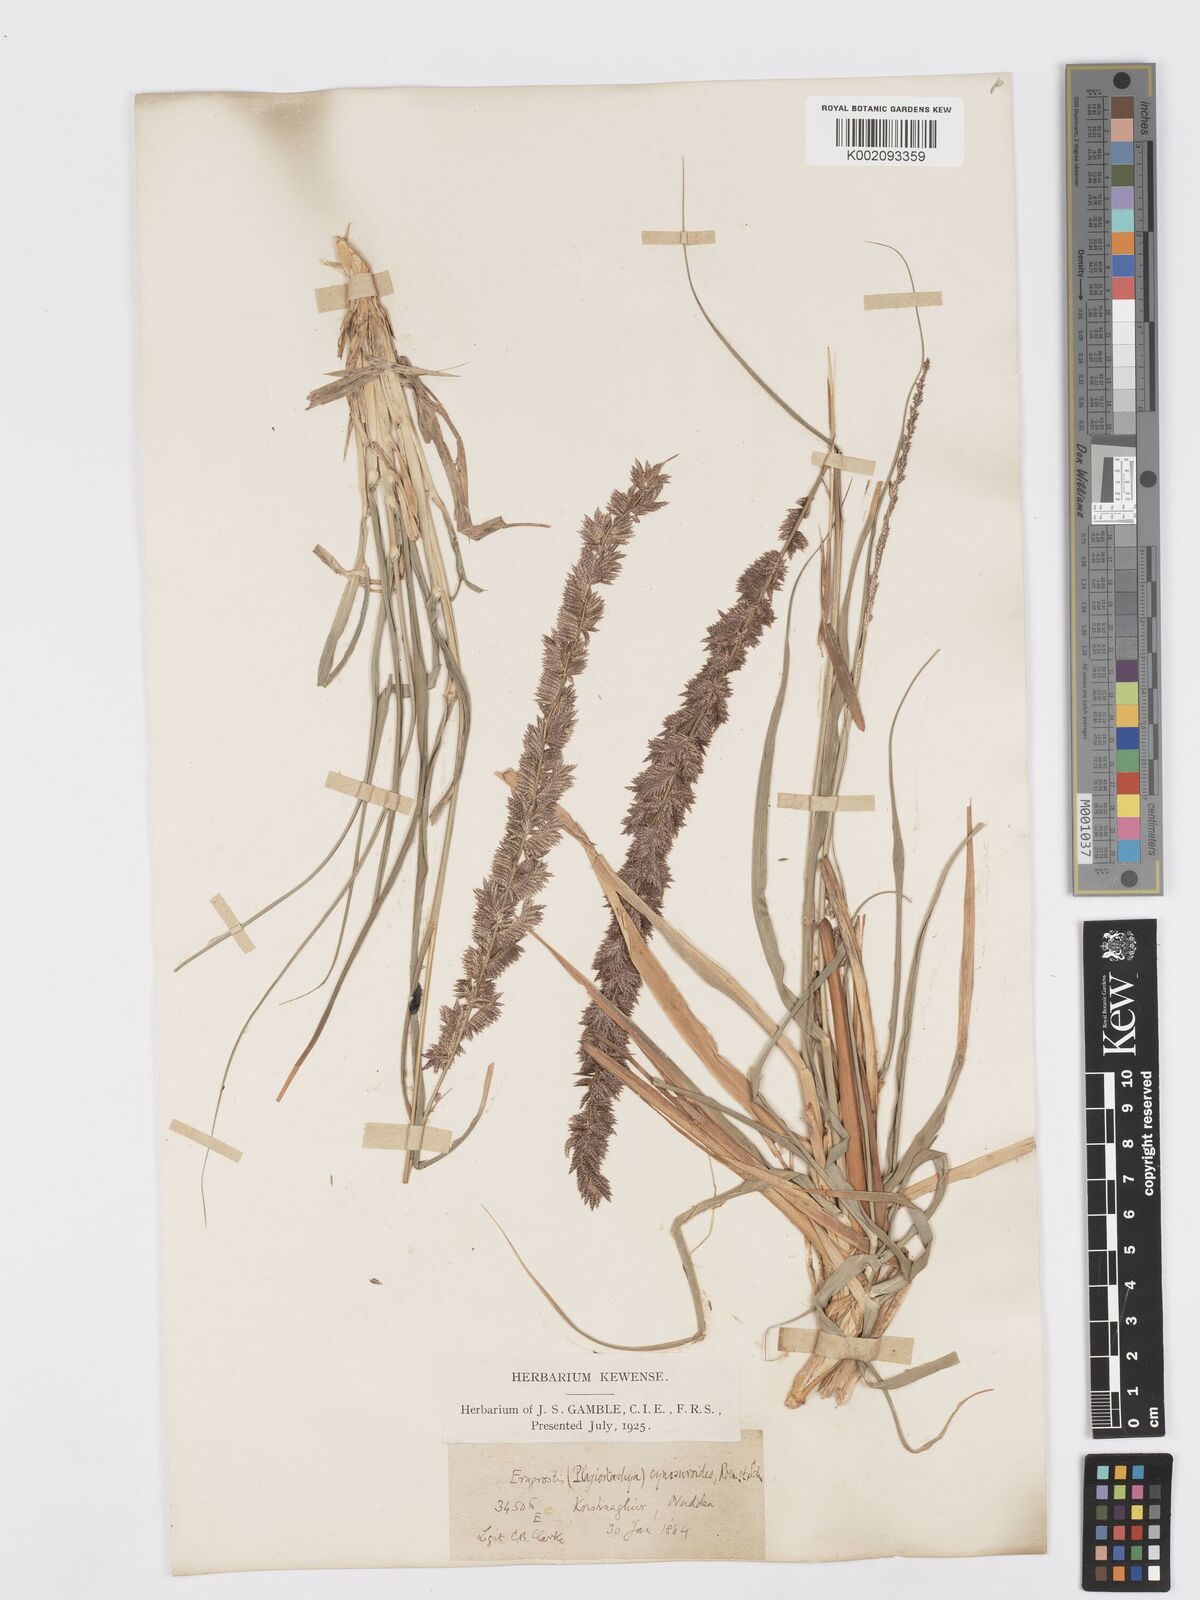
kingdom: Plantae
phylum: Tracheophyta
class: Liliopsida
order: Poales
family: Poaceae
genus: Desmostachya
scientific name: Desmostachya bipinnata
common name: Crowfoot grass
